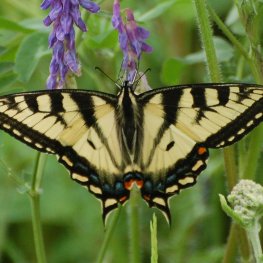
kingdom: Animalia
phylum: Arthropoda
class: Insecta
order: Lepidoptera
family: Papilionidae
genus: Pterourus
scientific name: Pterourus canadensis
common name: Canadian Tiger Swallowtail
